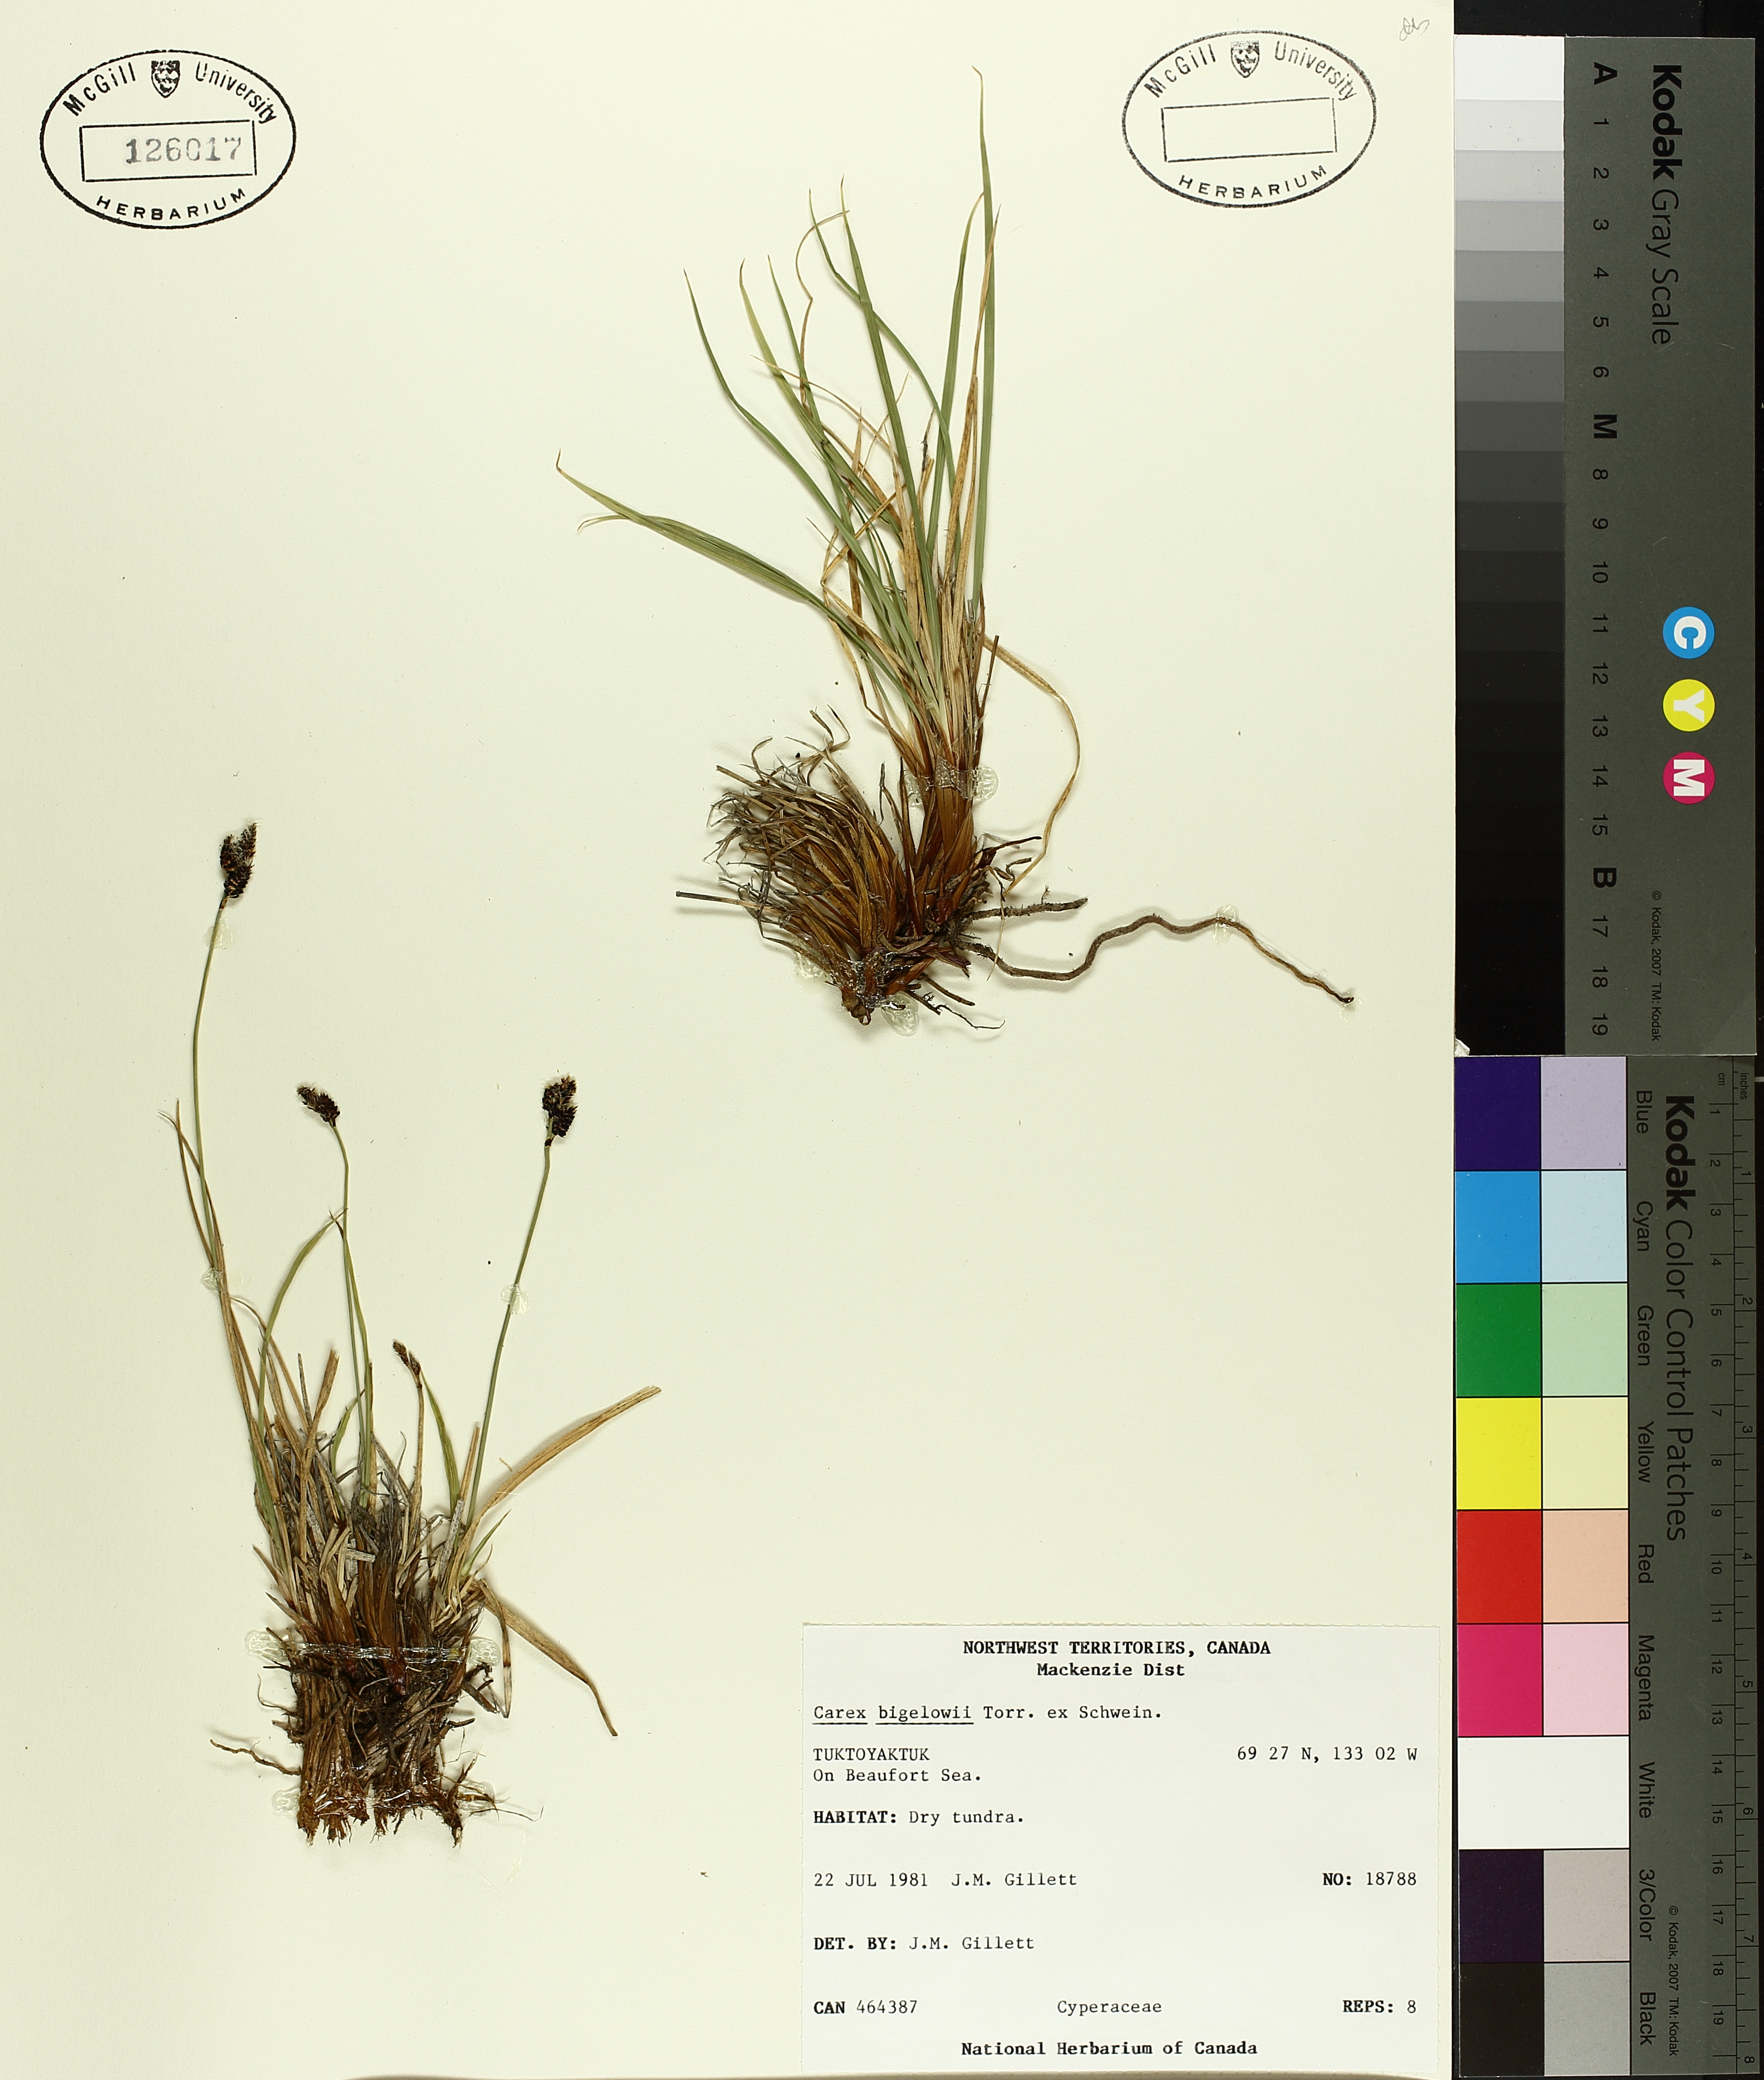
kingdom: Plantae
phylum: Tracheophyta
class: Liliopsida
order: Poales
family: Cyperaceae
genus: Carex
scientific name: Carex bigelowii
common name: Stiff sedge
